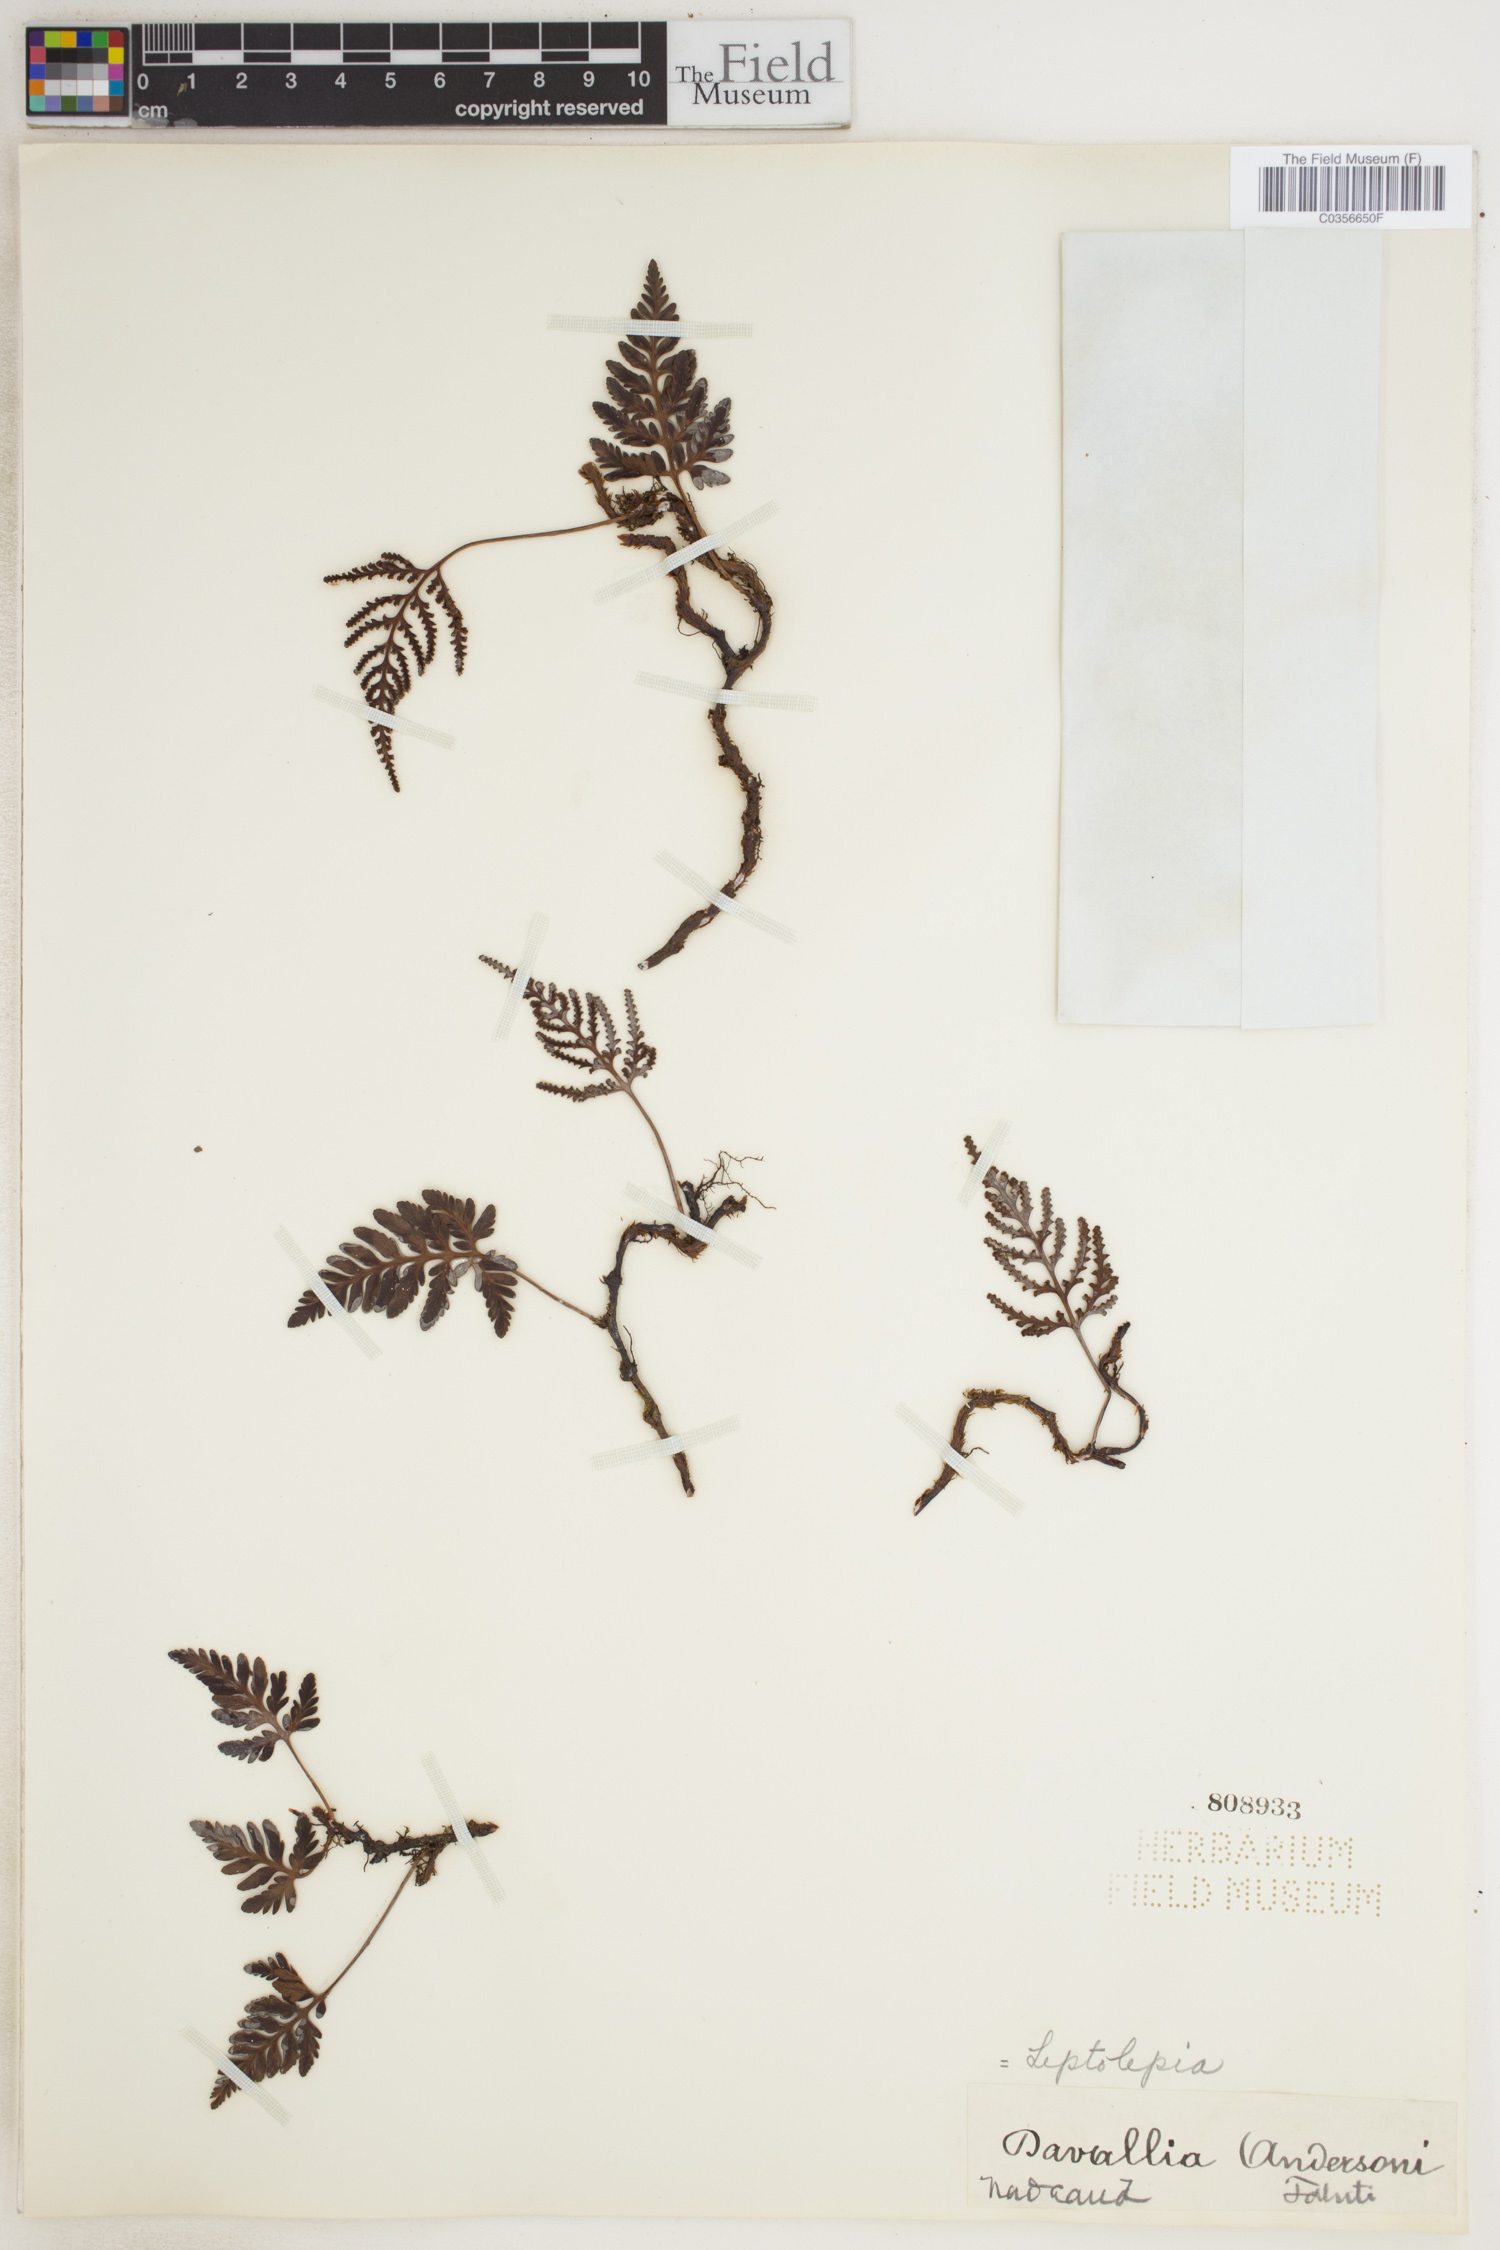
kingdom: Plantae
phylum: Tracheophyta
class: Polypodiopsida
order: Polypodiales
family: Dennstaedtiaceae
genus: Leptolepia
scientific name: Leptolepia
